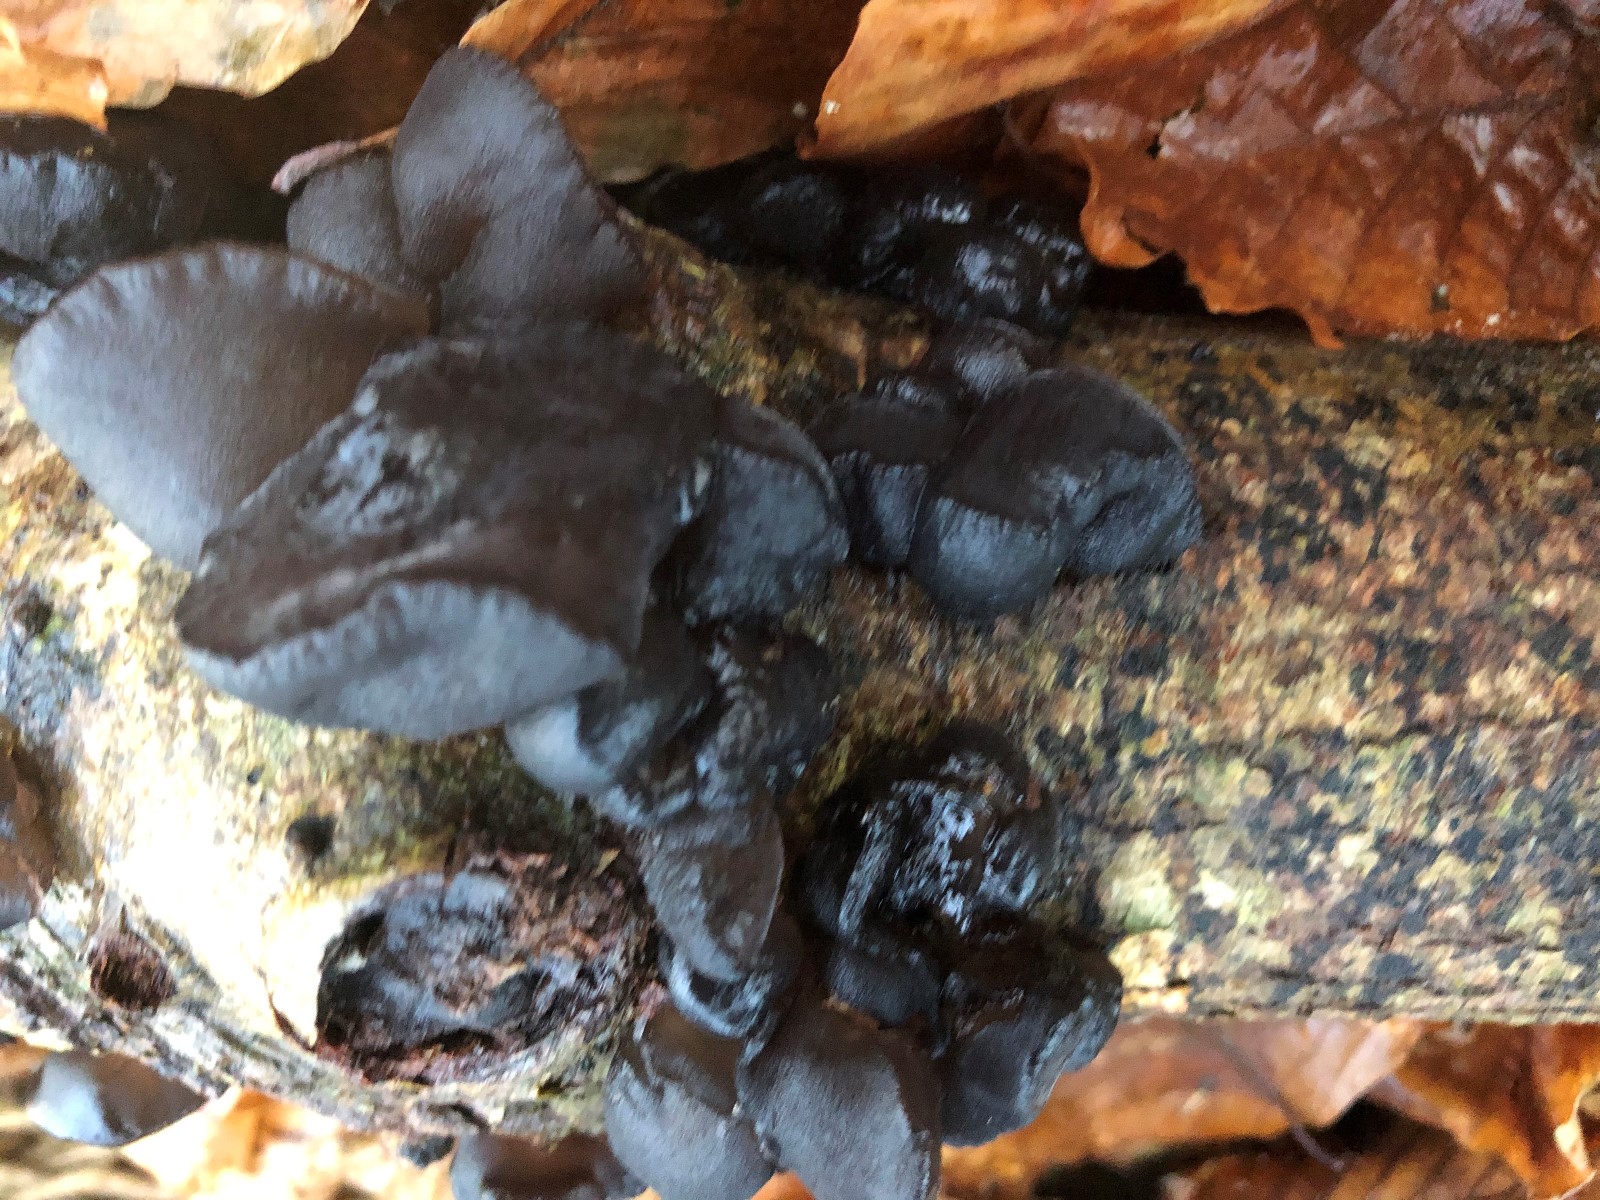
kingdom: Fungi
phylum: Basidiomycota
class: Agaricomycetes
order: Auriculariales
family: Auriculariaceae
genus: Exidia
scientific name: Exidia glandulosa
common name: ege-bævretop
